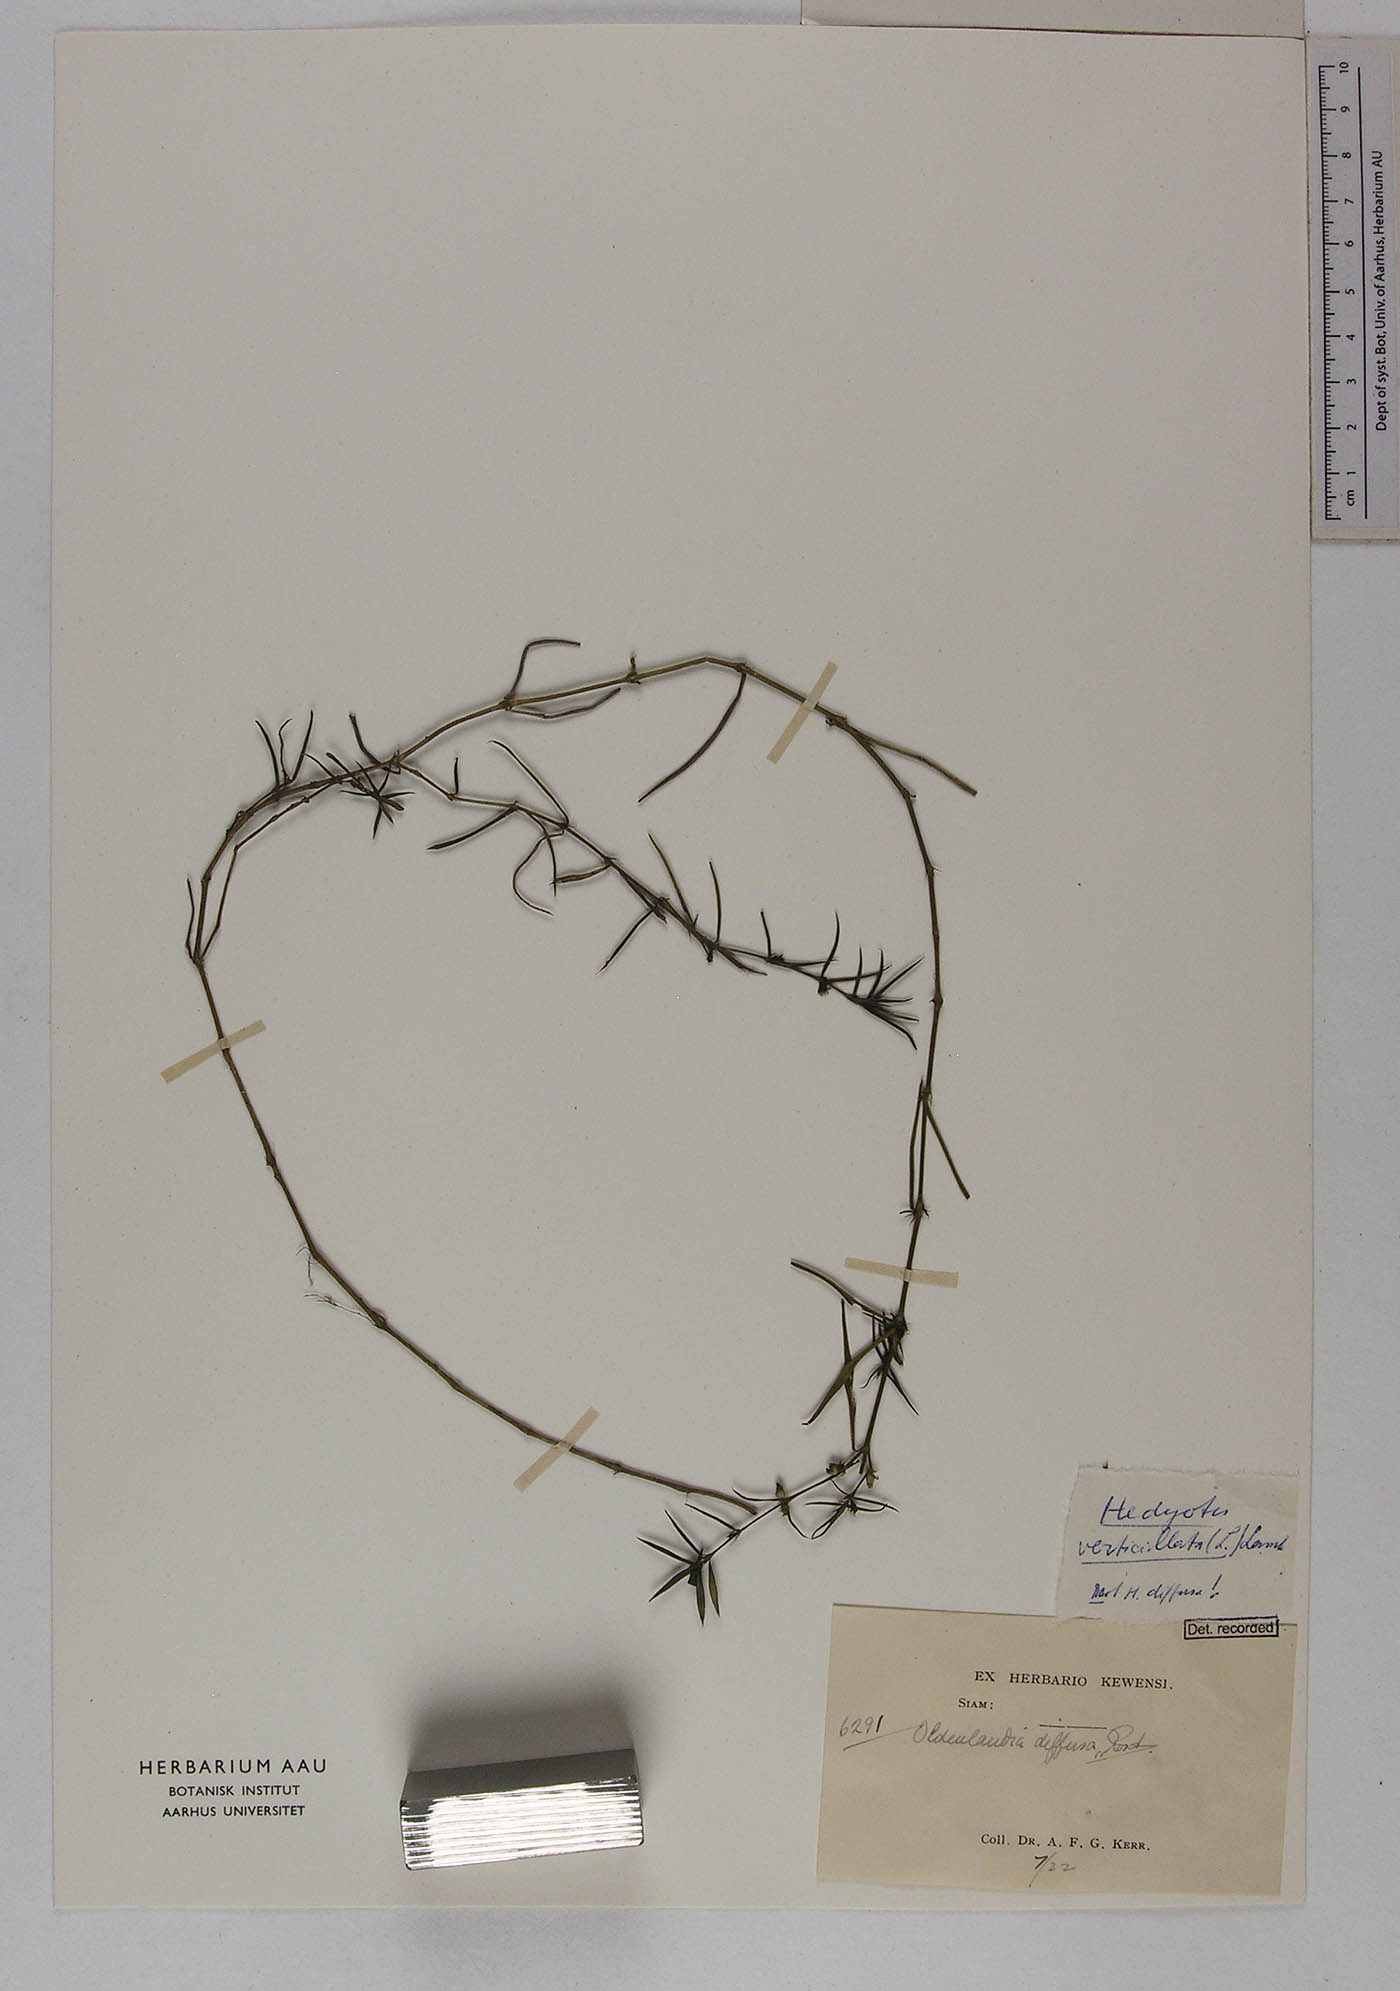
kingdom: Plantae
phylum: Tracheophyta
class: Magnoliopsida
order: Gentianales
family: Rubiaceae
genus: Scleromitrion
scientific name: Scleromitrion verticillatum
